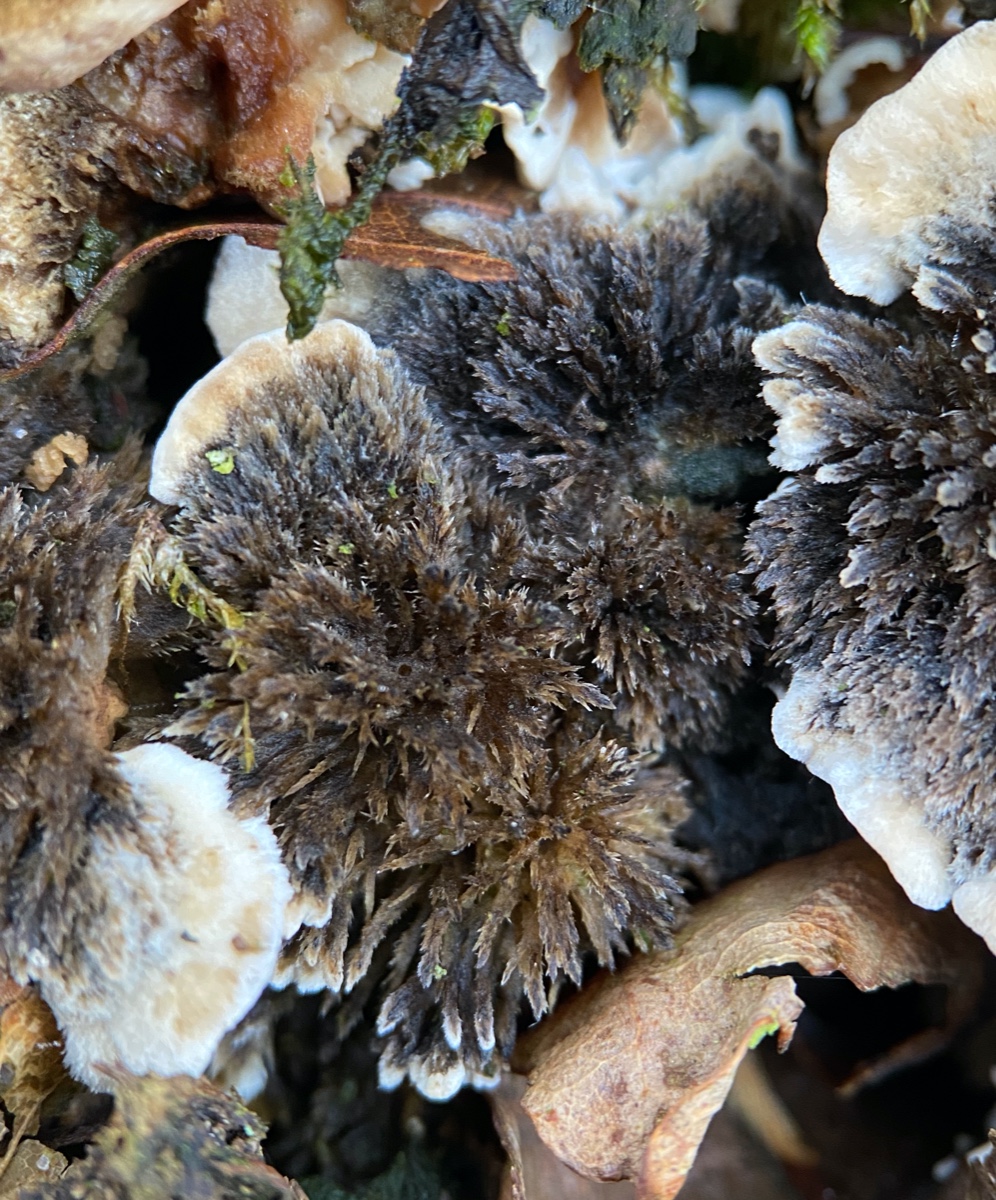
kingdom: Fungi
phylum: Basidiomycota
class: Agaricomycetes
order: Polyporales
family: Phanerochaetaceae
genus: Bjerkandera
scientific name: Bjerkandera adusta
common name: sveden sodporesvamp
